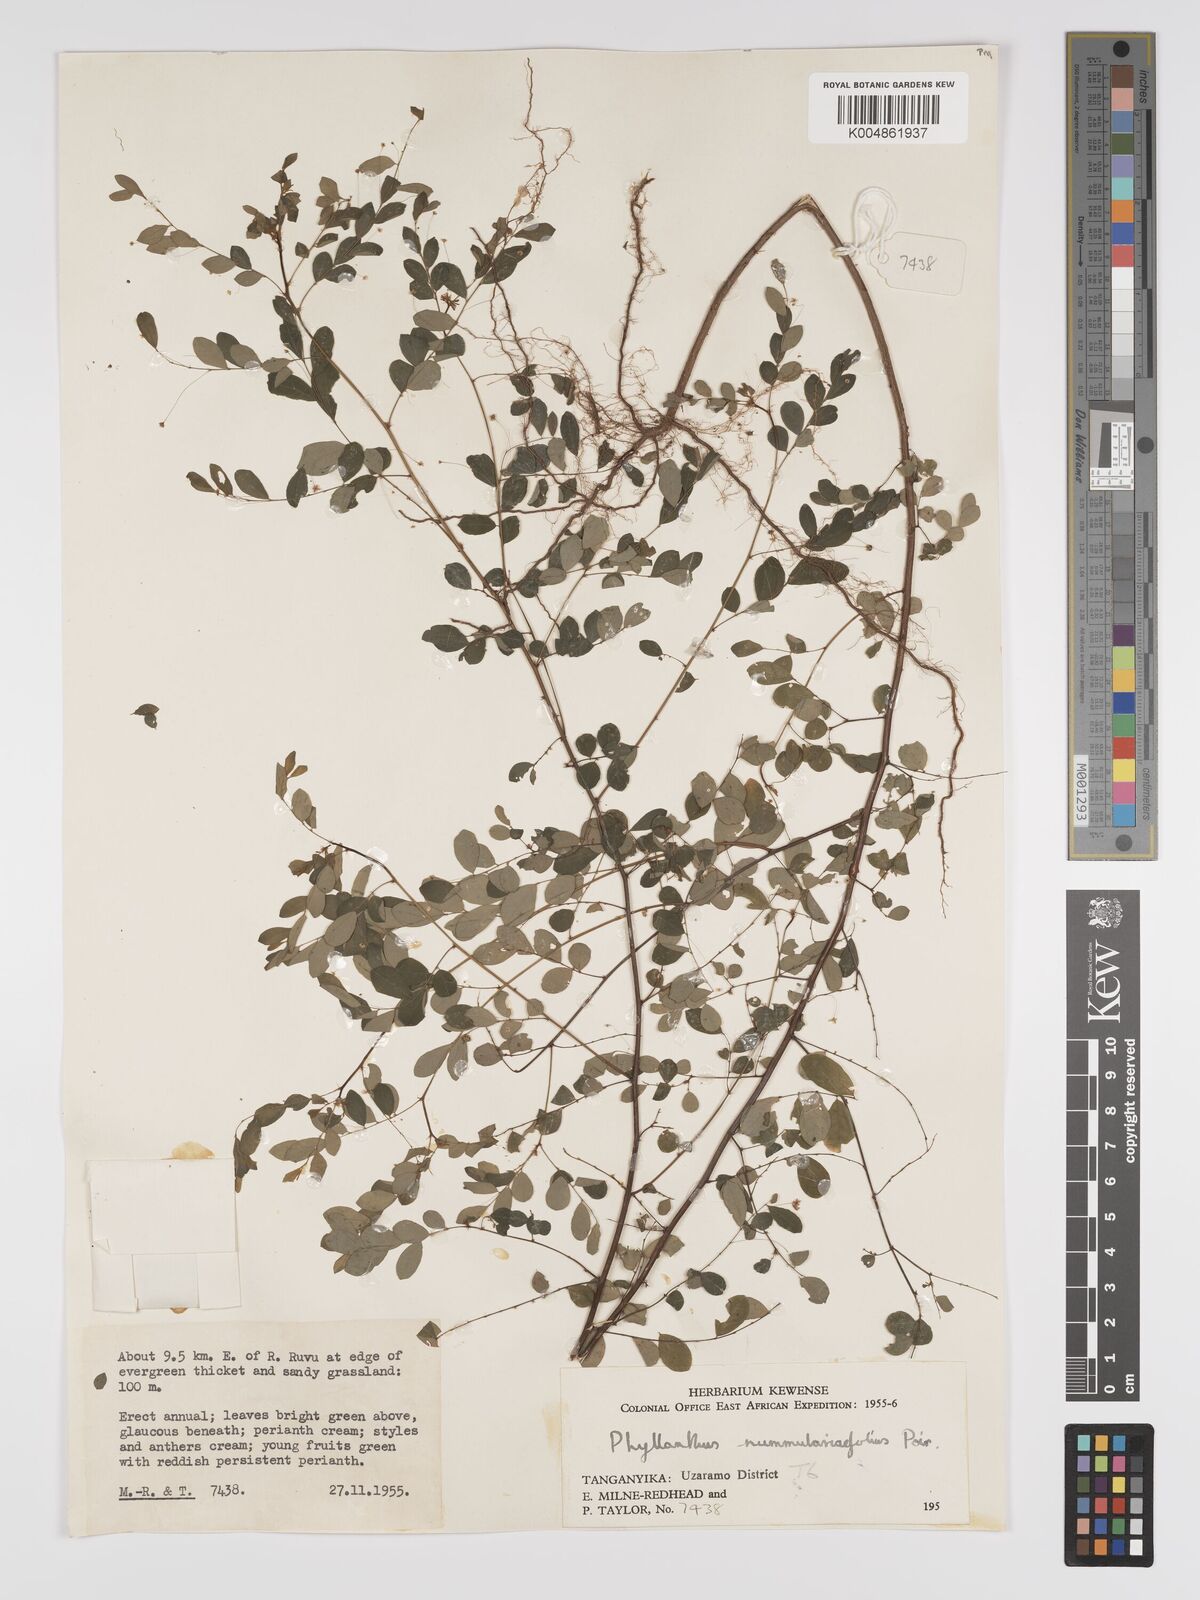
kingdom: Plantae
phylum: Tracheophyta
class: Magnoliopsida
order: Malpighiales
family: Phyllanthaceae
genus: Phyllanthus
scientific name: Phyllanthus nummulariifolius
